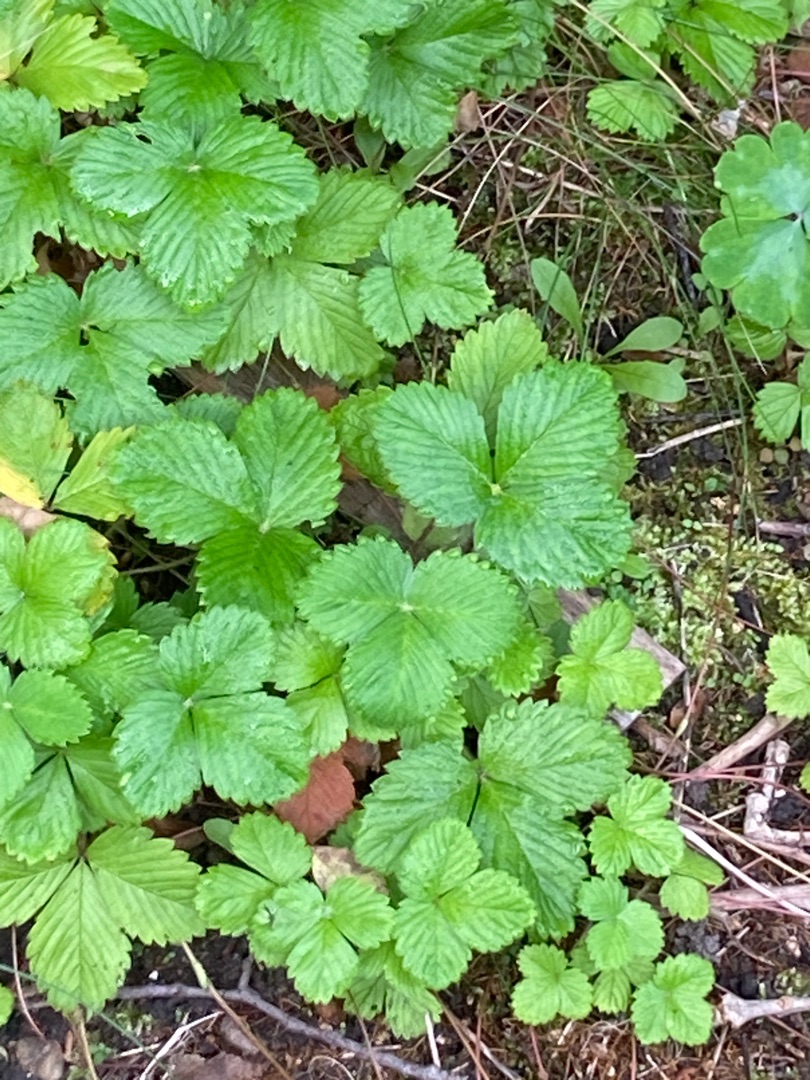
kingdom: Plantae
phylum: Tracheophyta
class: Magnoliopsida
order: Rosales
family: Rosaceae
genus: Fragaria
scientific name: Fragaria vesca
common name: Skov-jordbær
